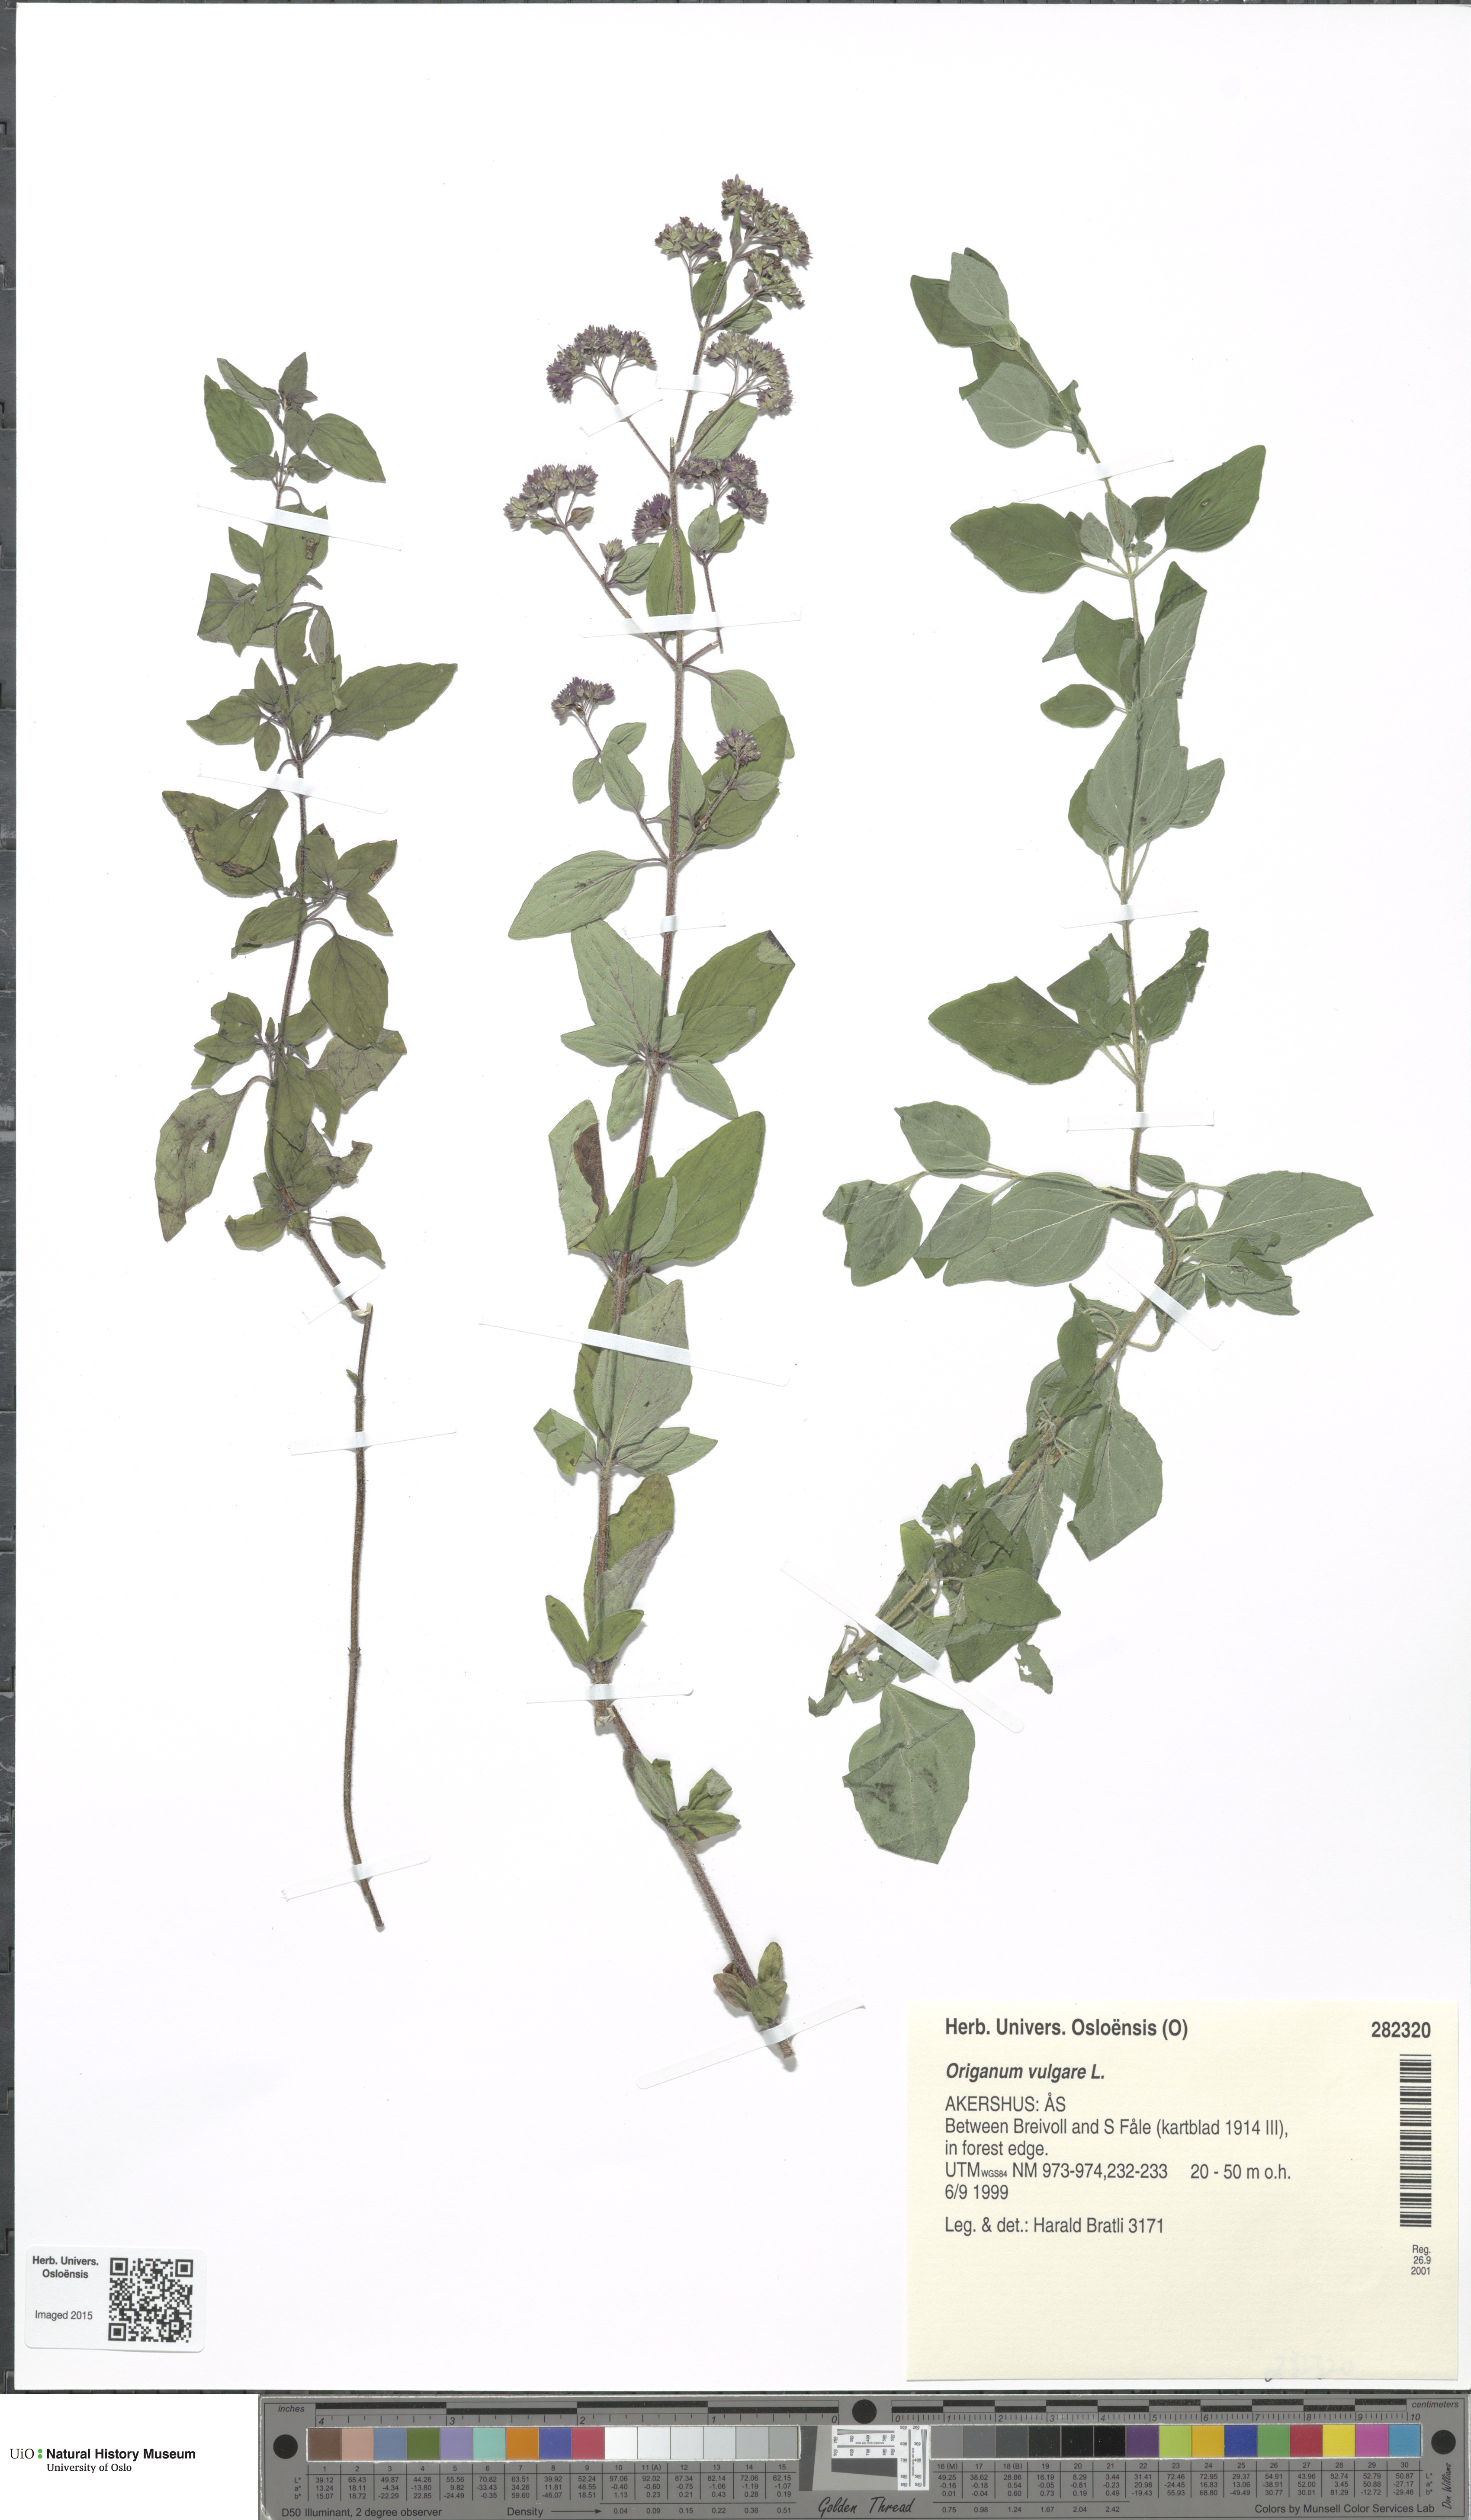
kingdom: Plantae
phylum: Tracheophyta
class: Magnoliopsida
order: Lamiales
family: Lamiaceae
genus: Origanum
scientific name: Origanum vulgare
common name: Wild marjoram
